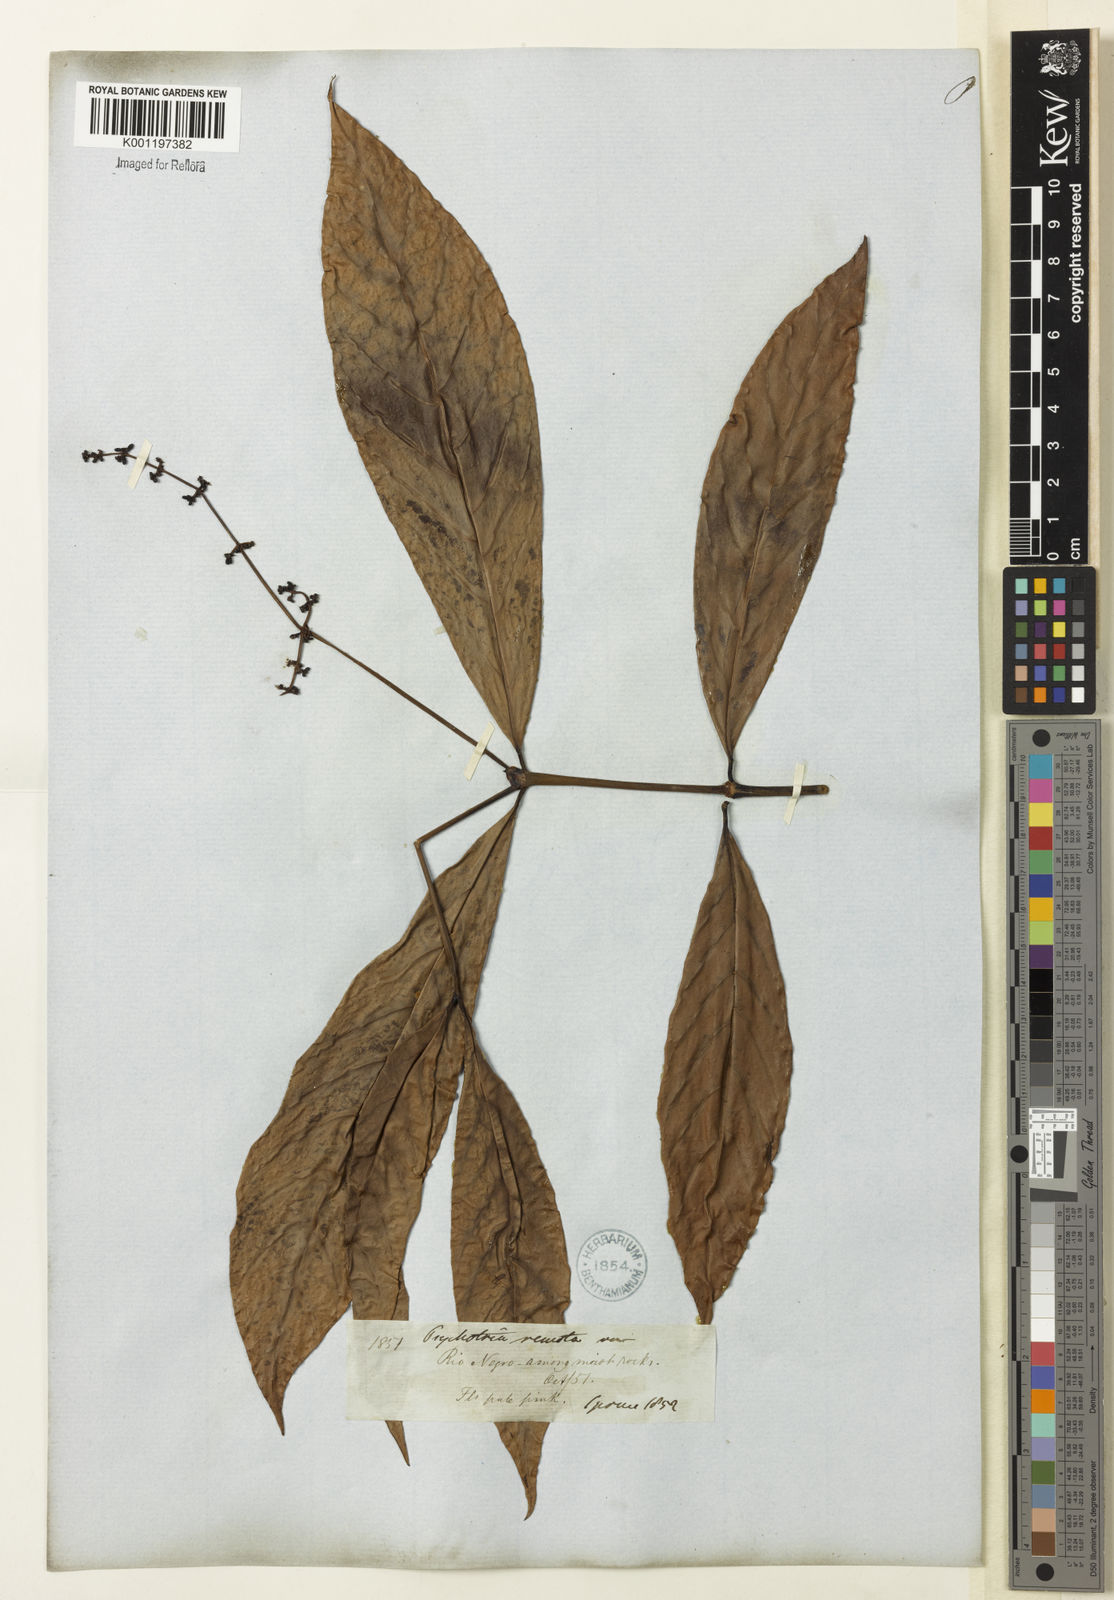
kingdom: Plantae
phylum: Tracheophyta
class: Magnoliopsida
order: Gentianales
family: Rubiaceae
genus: Psychotria
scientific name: Psychotria remota
